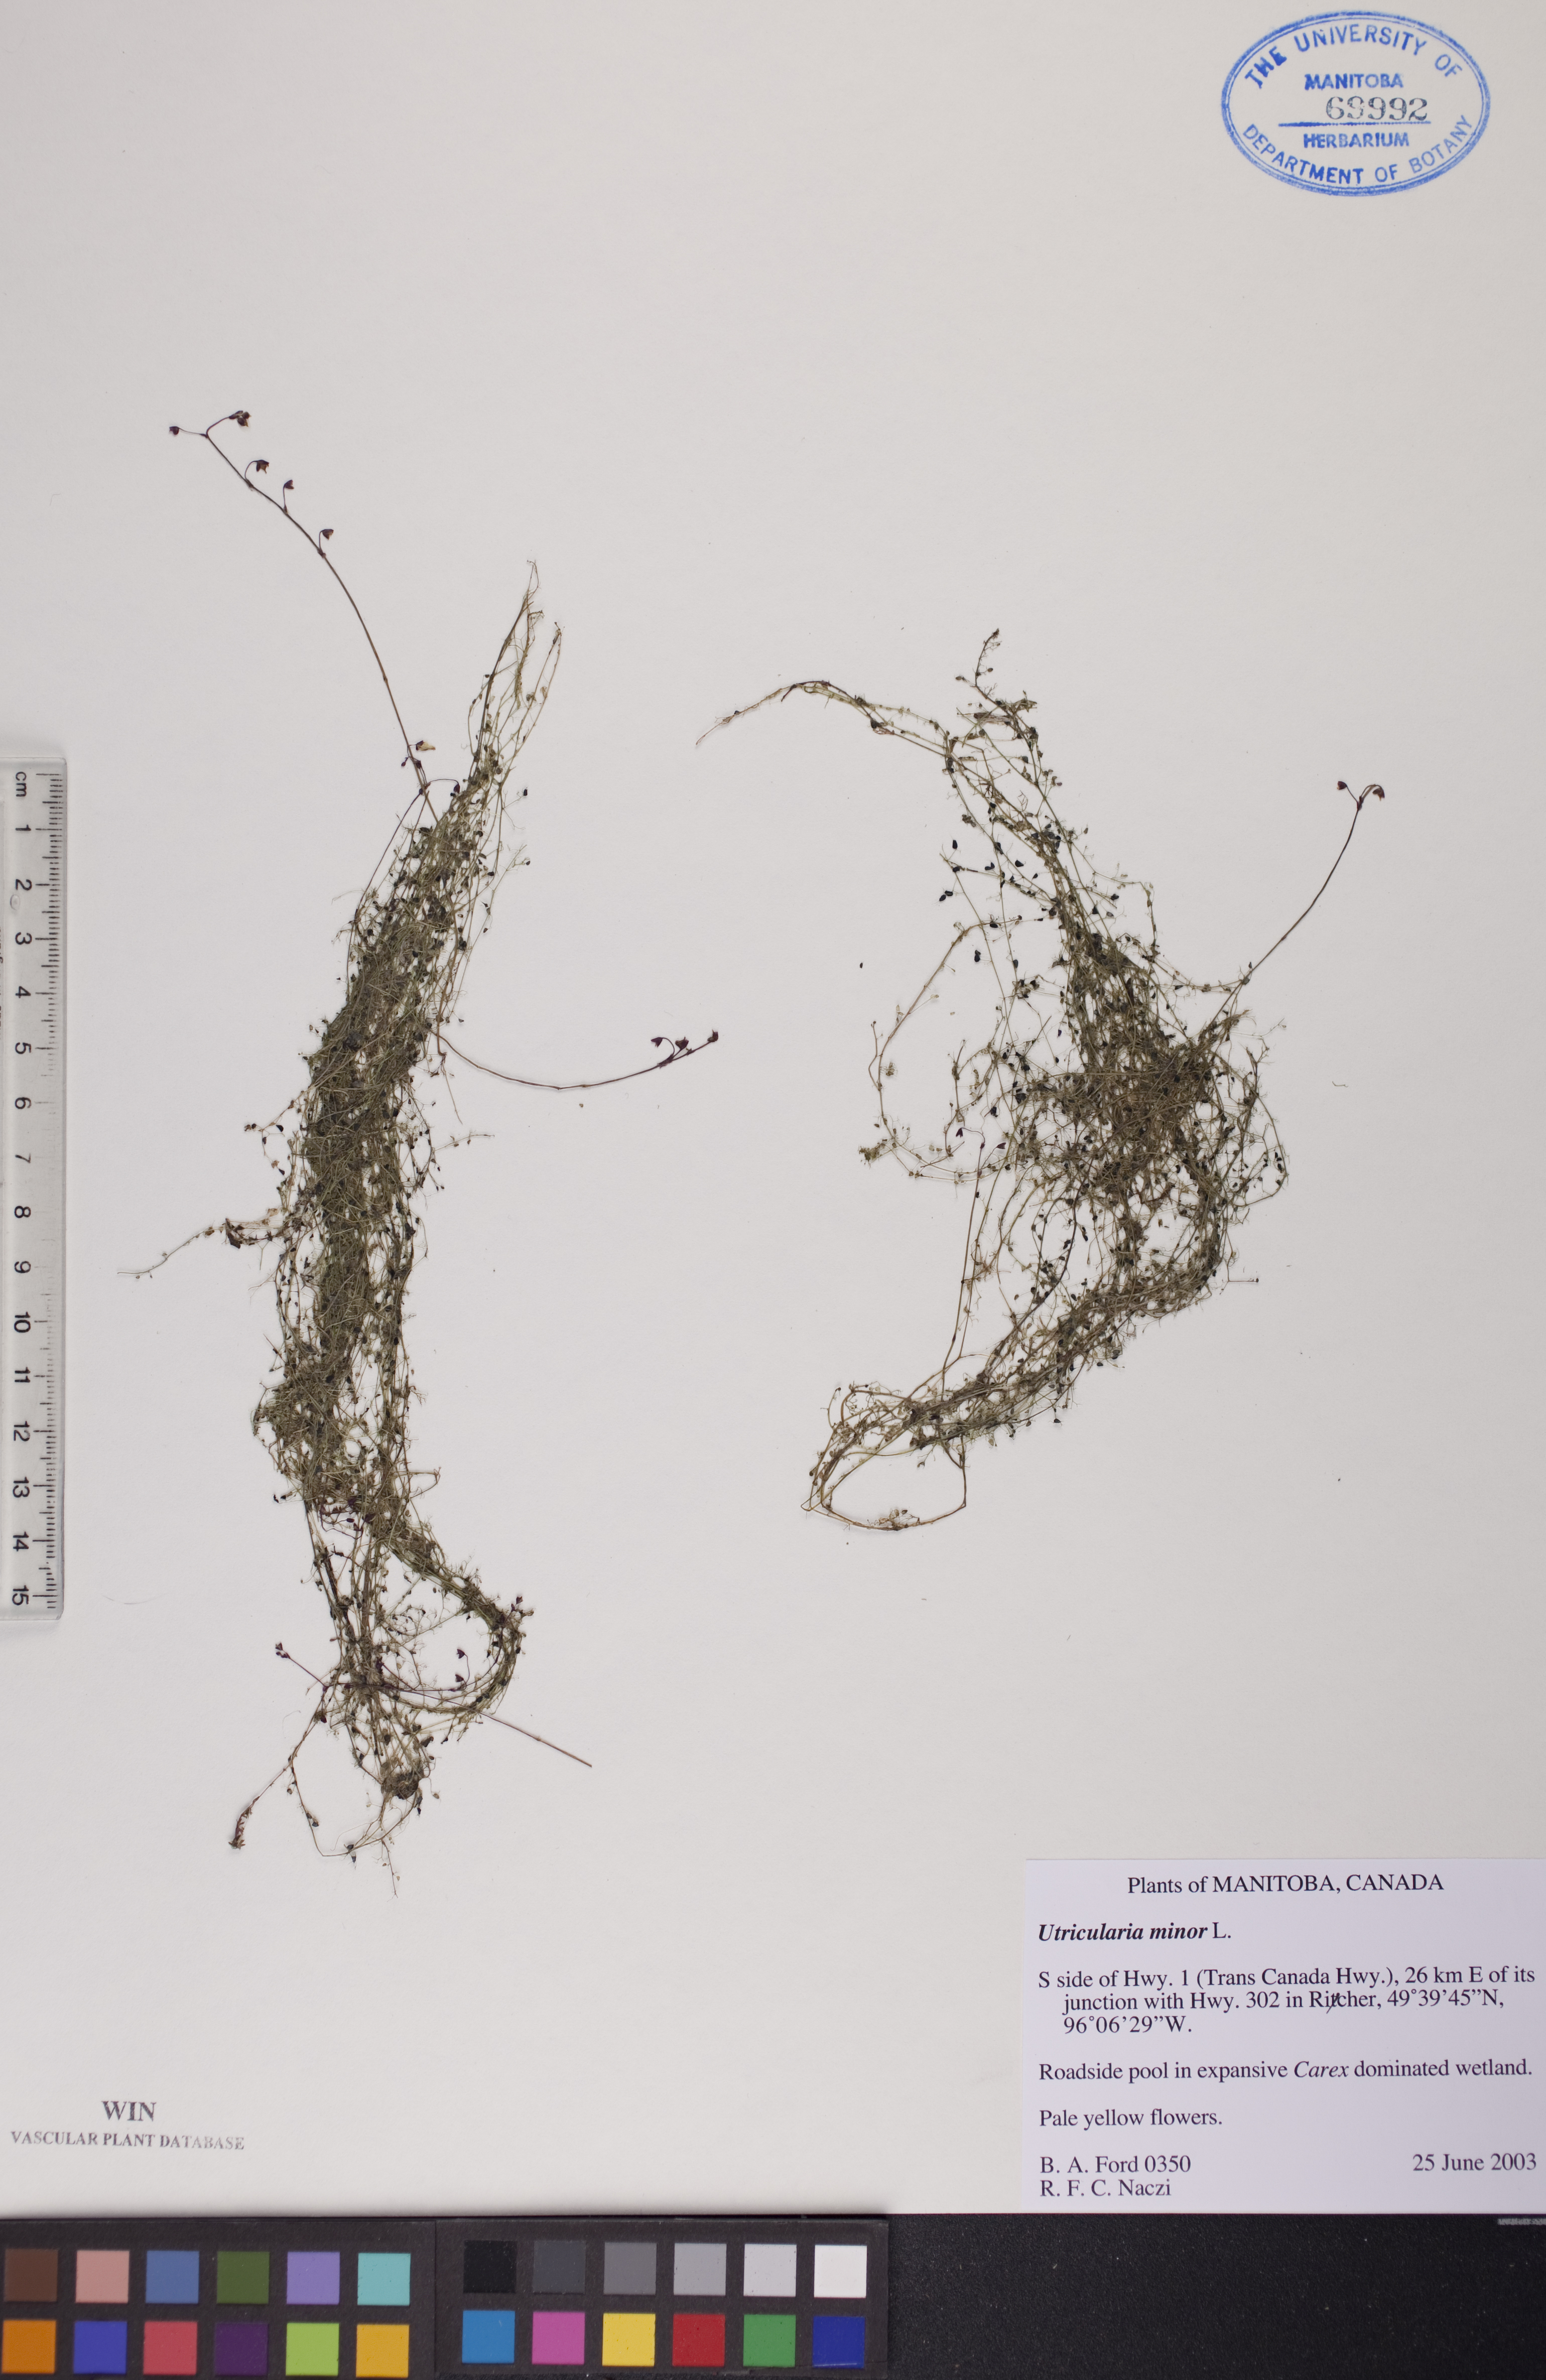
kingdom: Plantae
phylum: Tracheophyta
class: Magnoliopsida
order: Lamiales
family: Lentibulariaceae
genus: Utricularia
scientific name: Utricularia minor
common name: Lesser bladderwort
